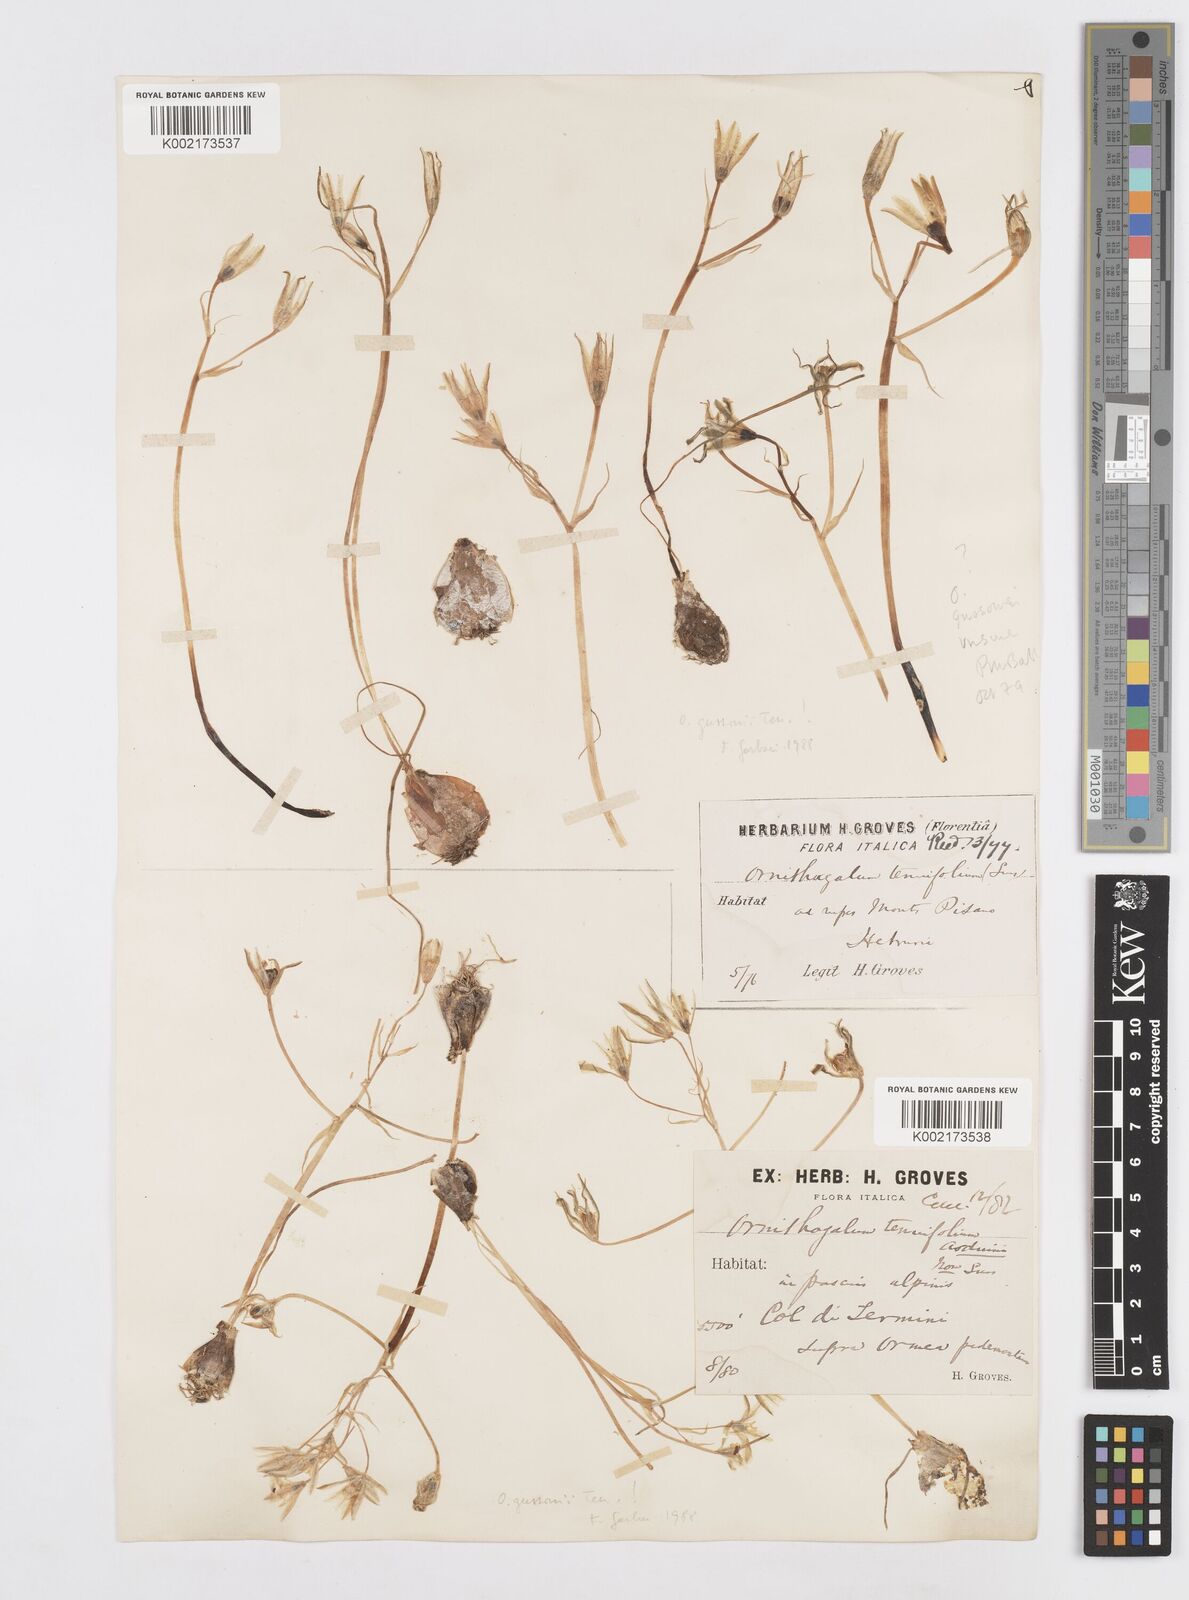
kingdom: Plantae
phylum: Tracheophyta
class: Liliopsida
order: Asparagales
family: Asparagaceae
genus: Ornithogalum
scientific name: Ornithogalum gussonei
